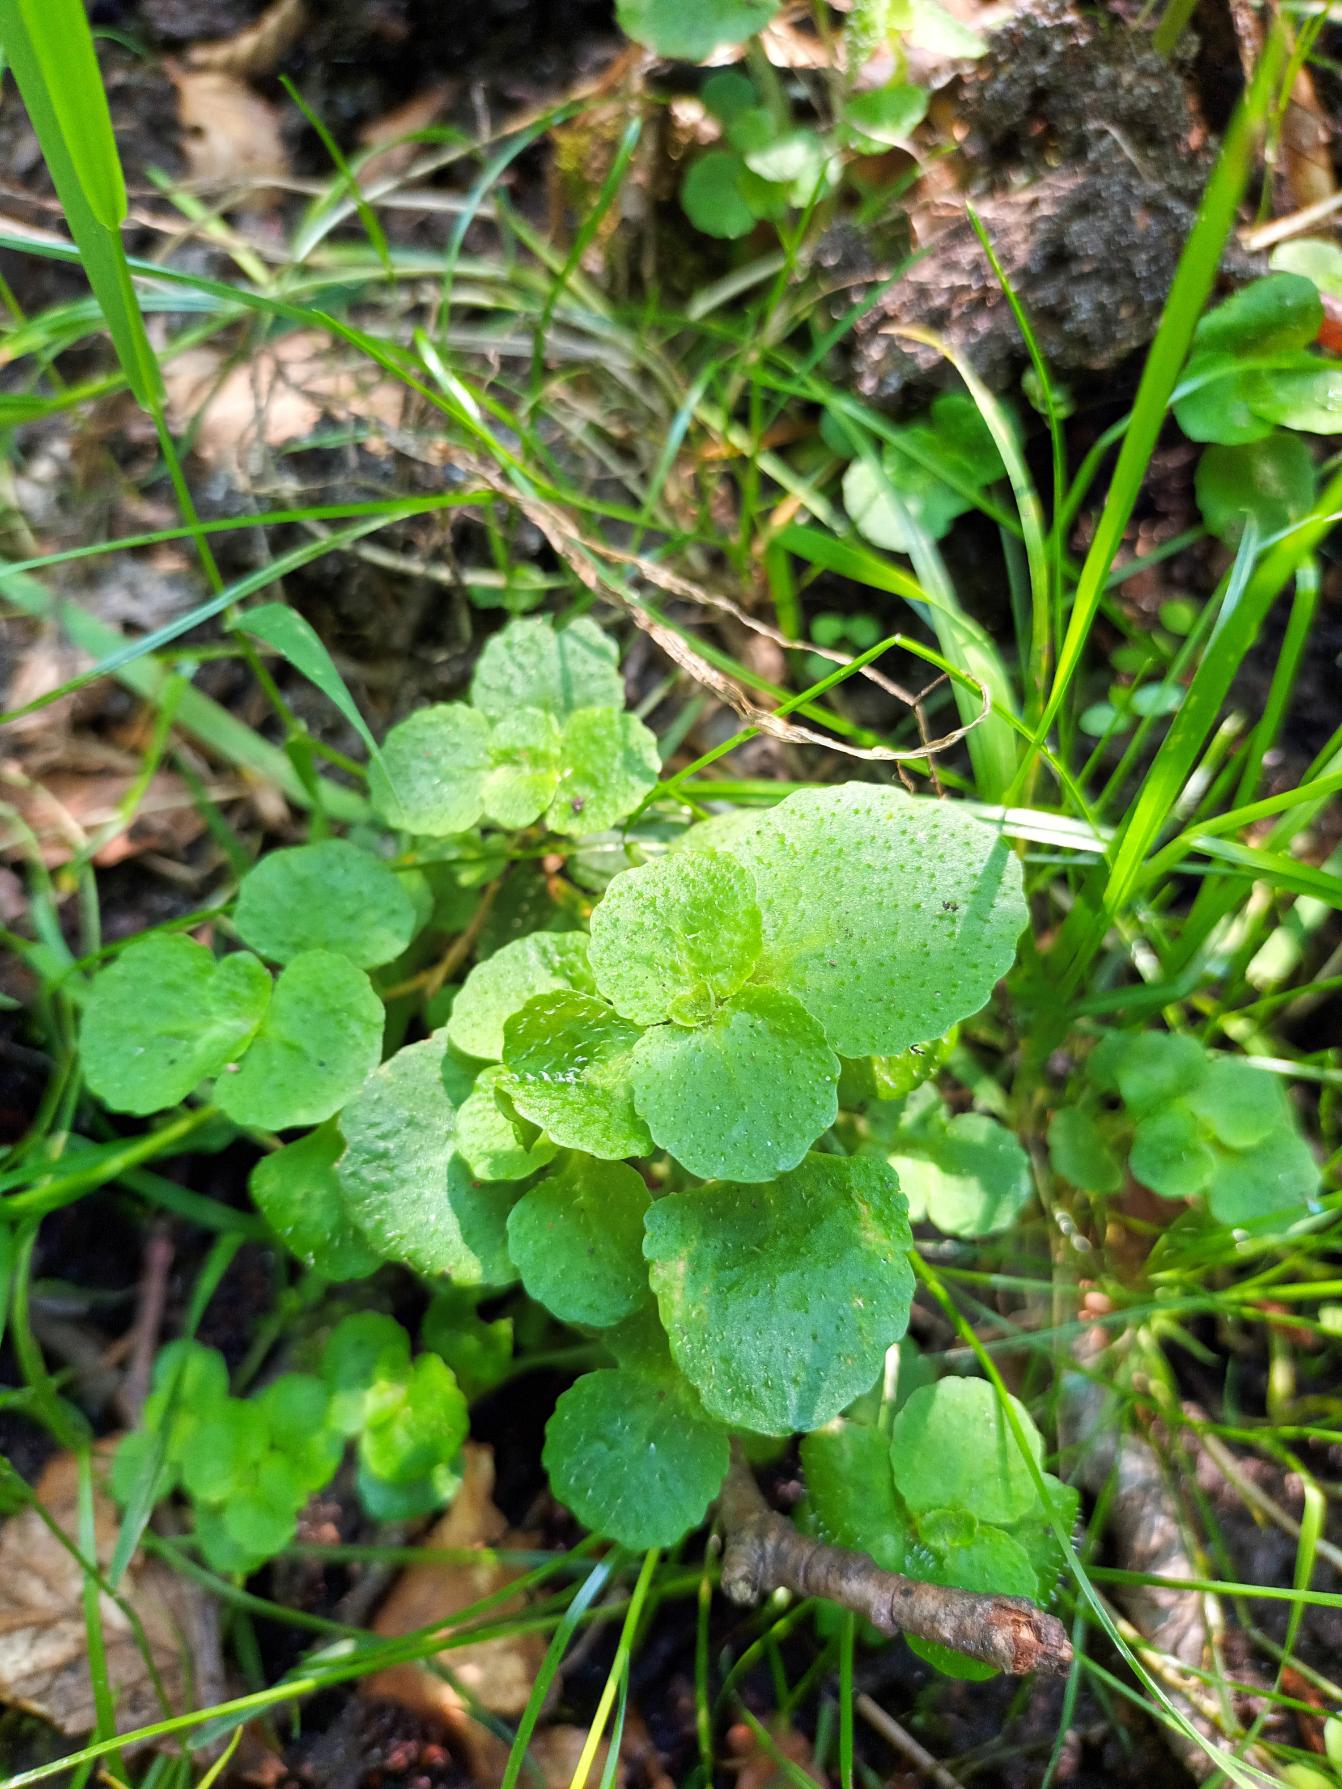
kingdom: Plantae
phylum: Tracheophyta
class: Magnoliopsida
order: Saxifragales
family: Saxifragaceae
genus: Chrysosplenium
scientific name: Chrysosplenium oppositifolium
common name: Småbladet milturt
